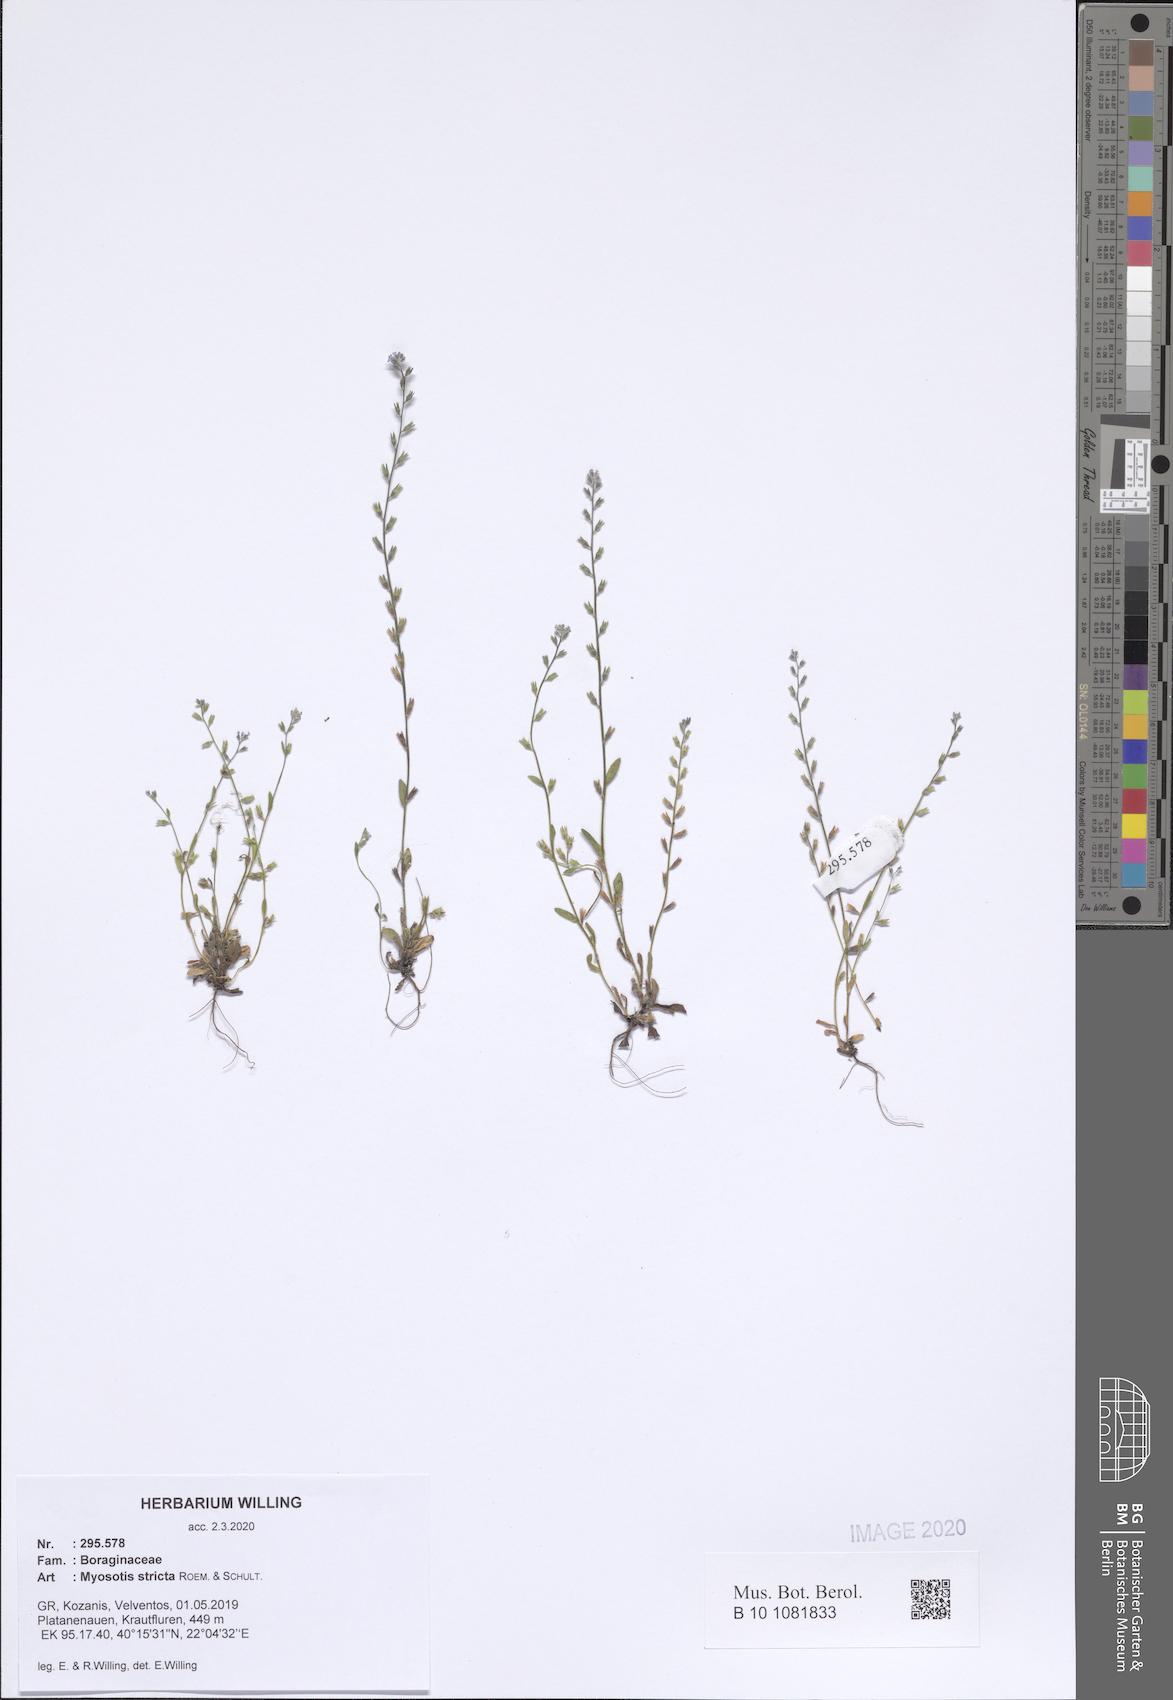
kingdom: Plantae
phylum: Tracheophyta
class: Magnoliopsida
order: Boraginales
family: Boraginaceae
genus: Myosotis
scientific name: Myosotis stricta
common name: Strict forget-me-not
